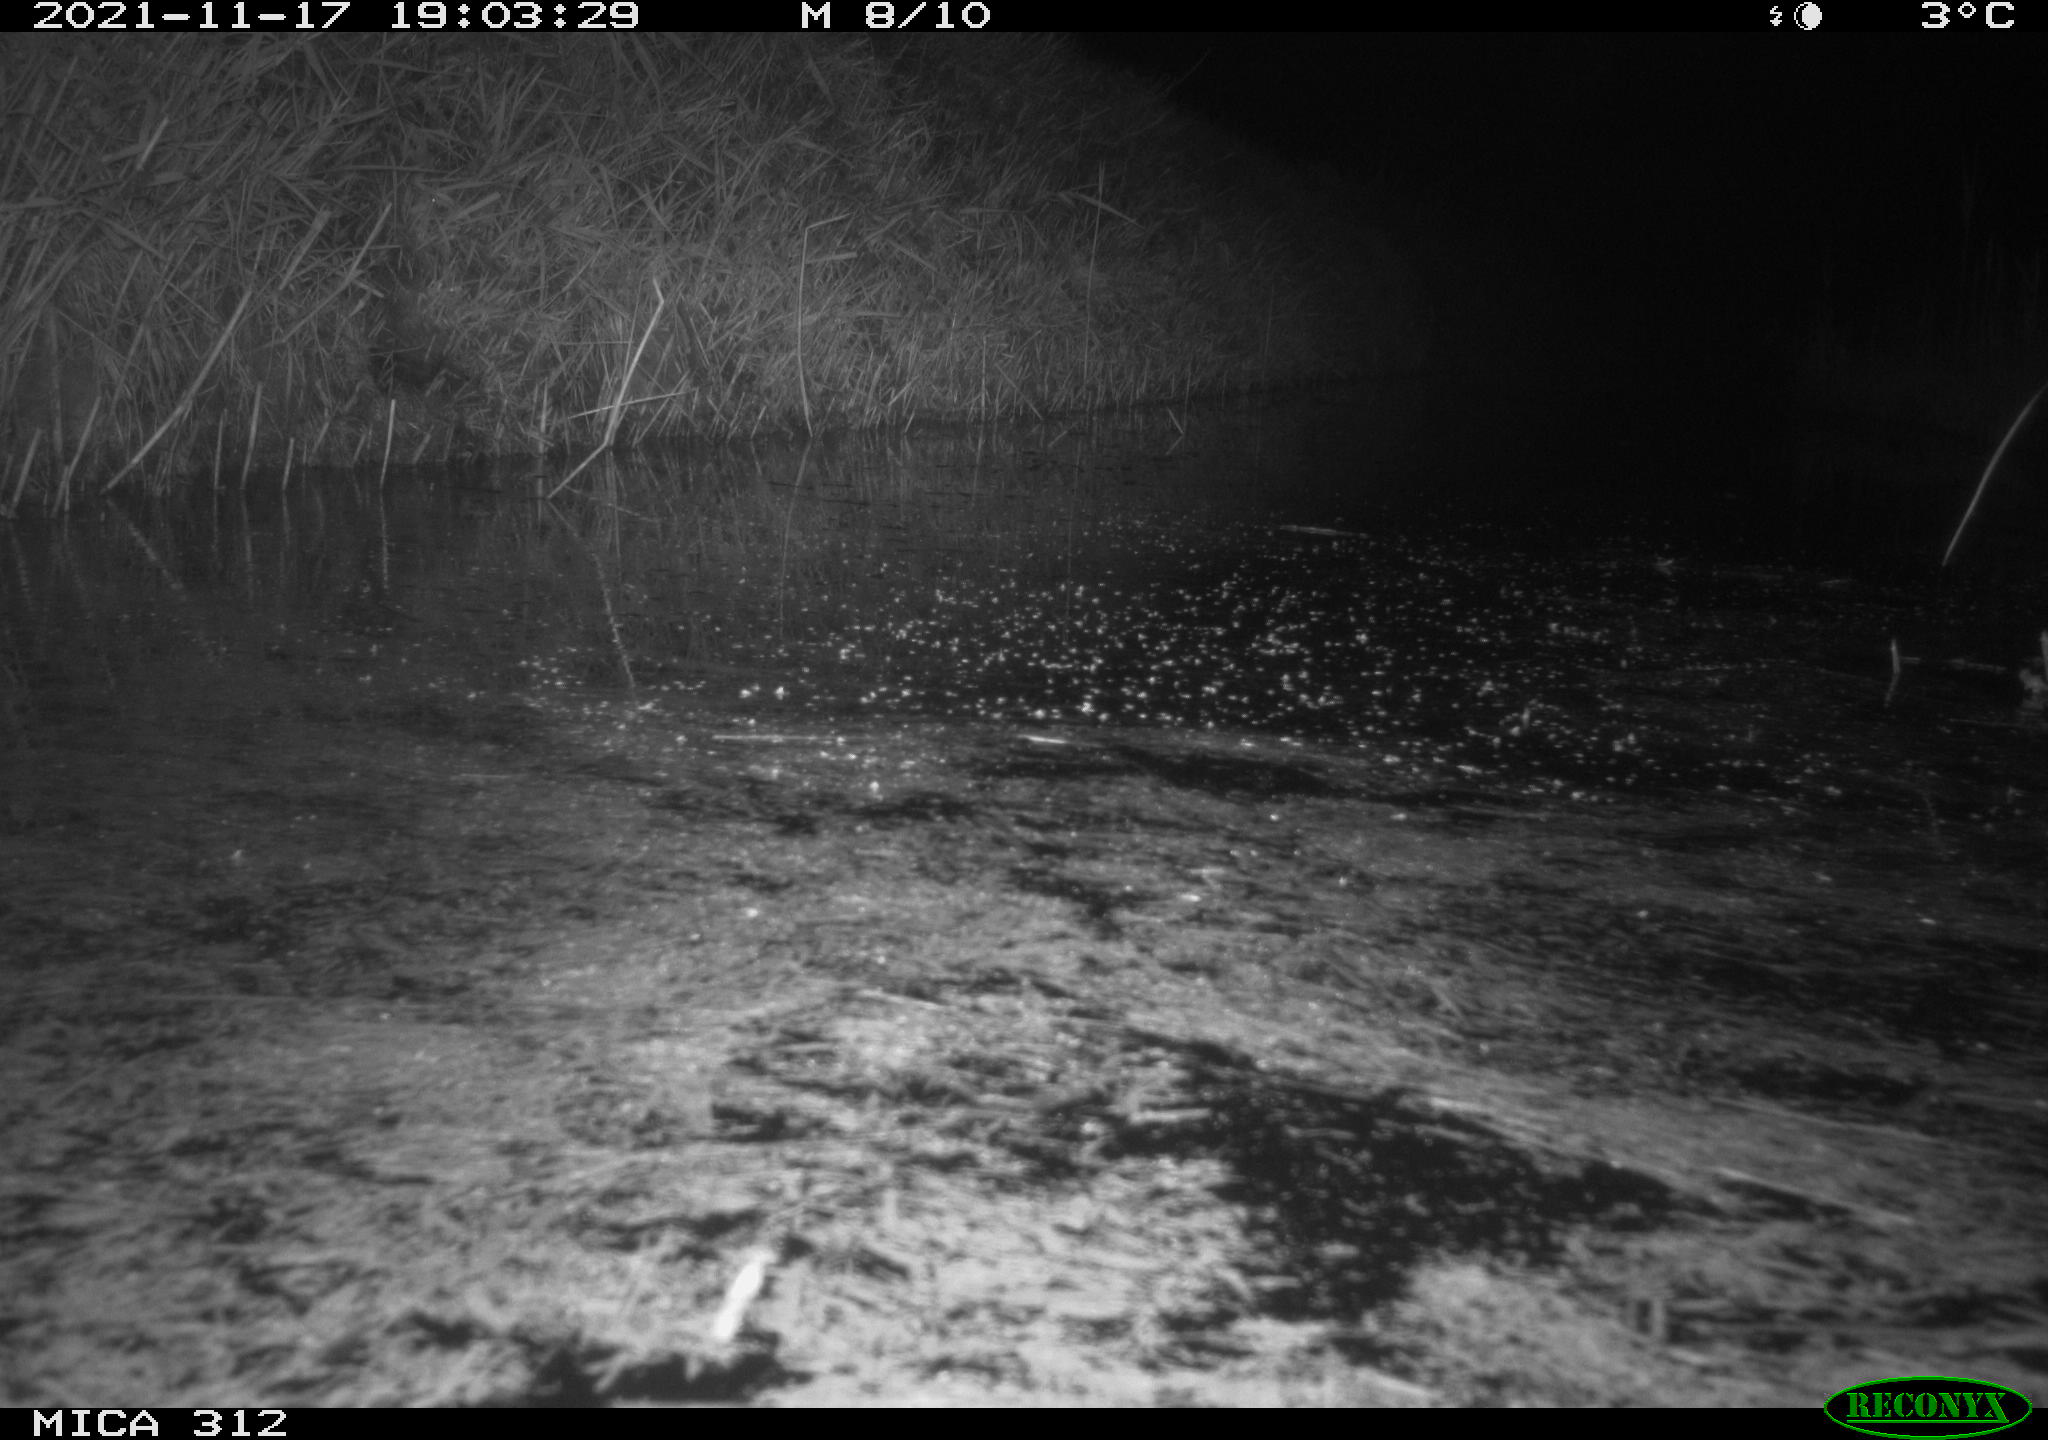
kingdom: Animalia
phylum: Chordata
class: Mammalia
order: Rodentia
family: Muridae
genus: Rattus
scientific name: Rattus norvegicus
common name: Brown rat
